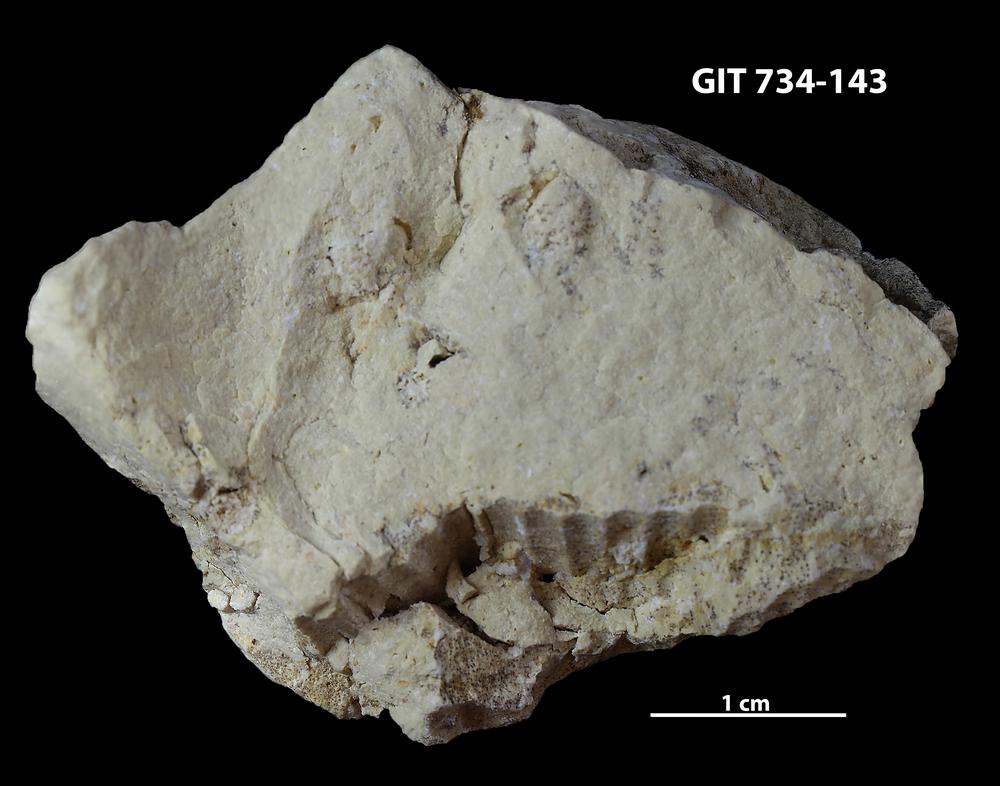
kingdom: Animalia
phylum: Cnidaria
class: Anthozoa
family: Cateniporidae
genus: Catenipora
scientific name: Catenipora
